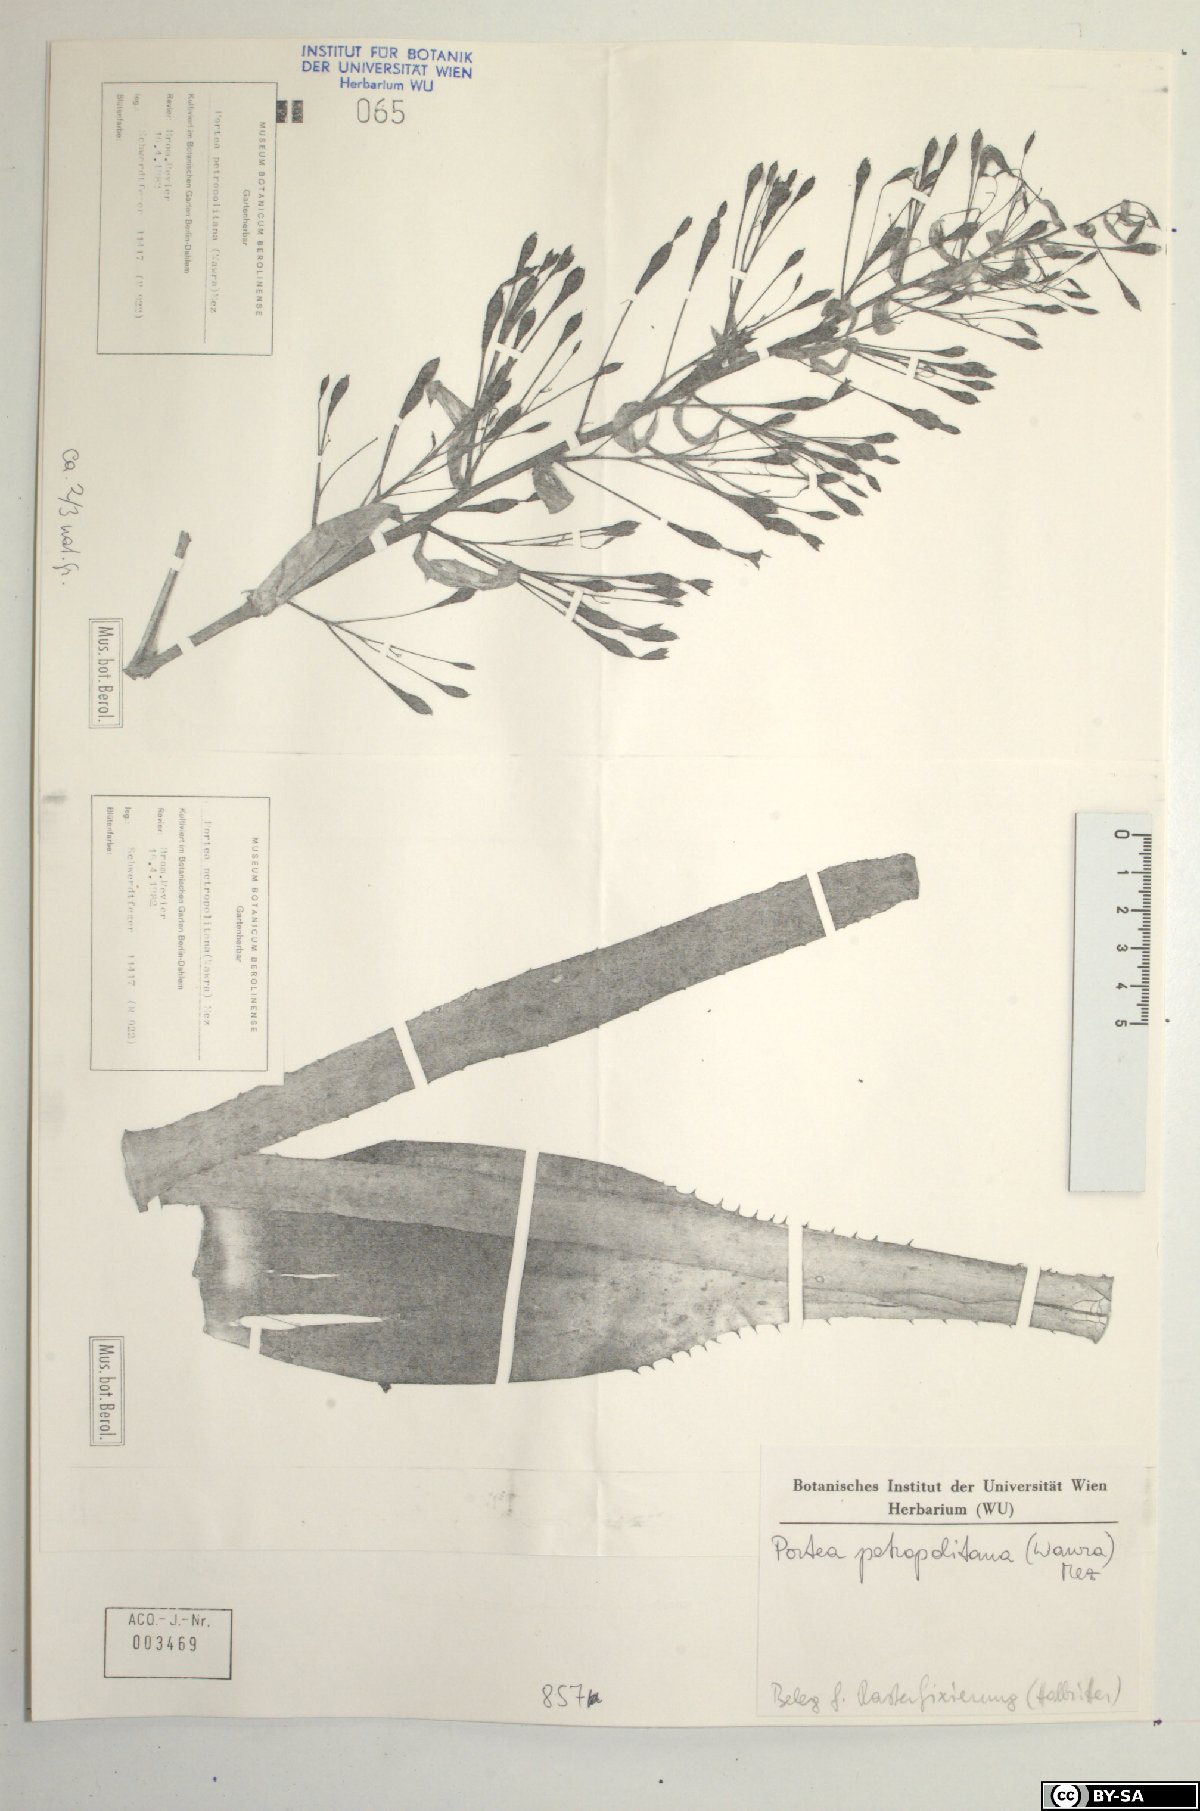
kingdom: Plantae
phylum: Tracheophyta
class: Liliopsida
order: Poales
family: Bromeliaceae
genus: Portea
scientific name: Portea petropolitana
